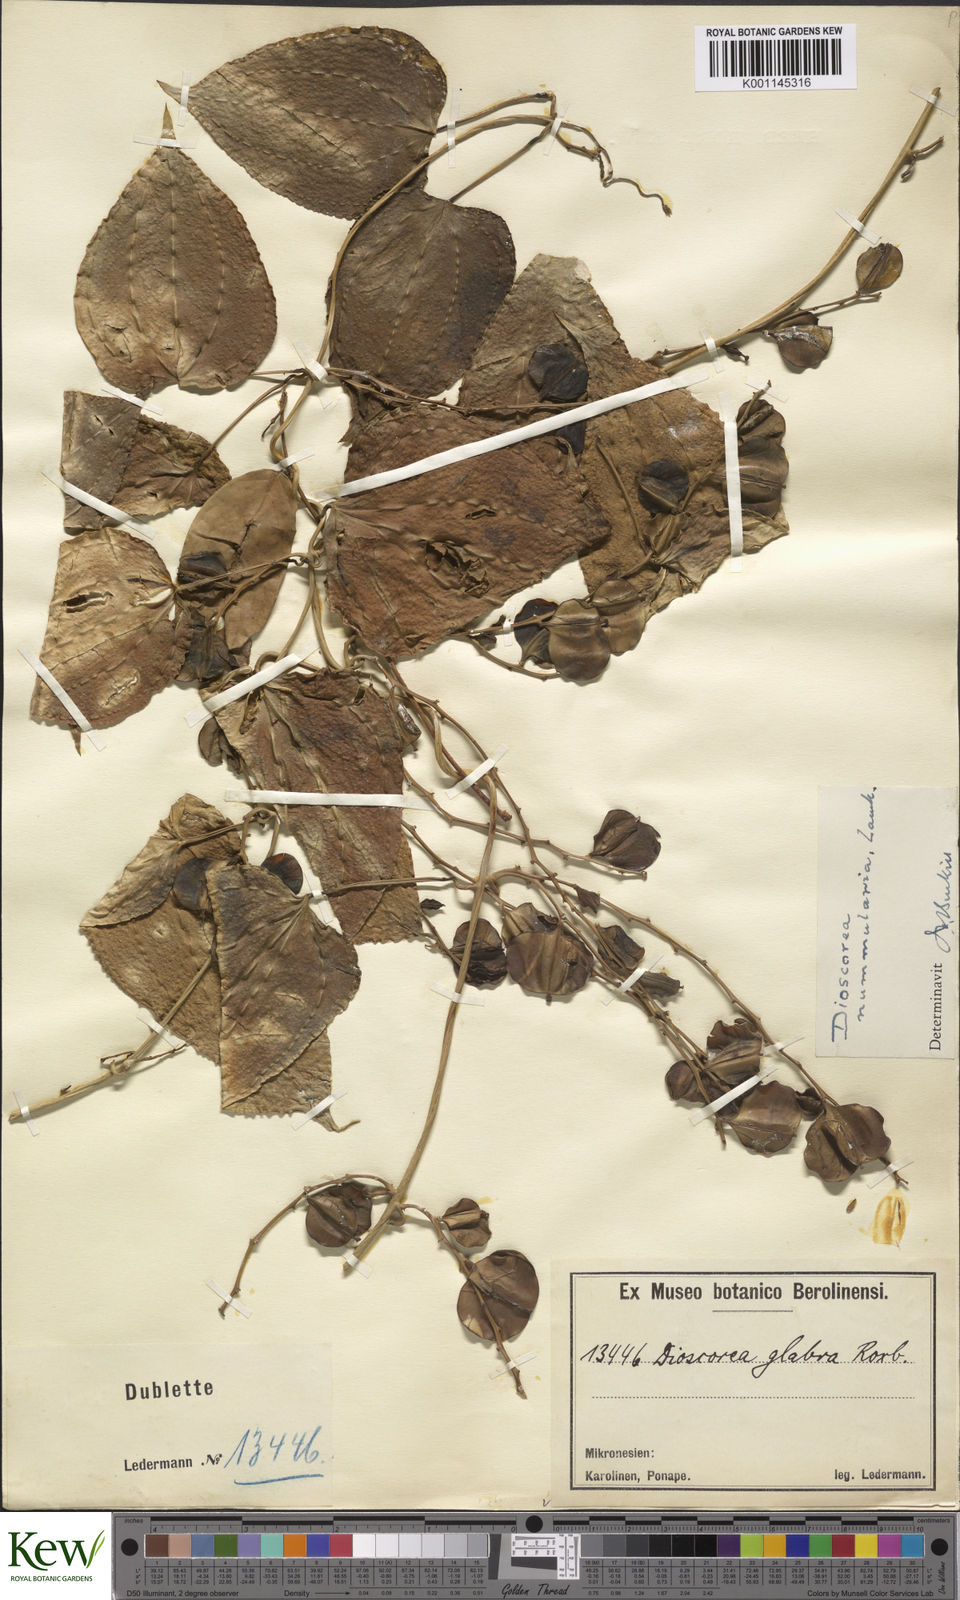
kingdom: Plantae
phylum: Tracheophyta
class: Liliopsida
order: Dioscoreales
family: Dioscoreaceae
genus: Dioscorea
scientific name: Dioscorea nummularia
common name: Pacific yam
